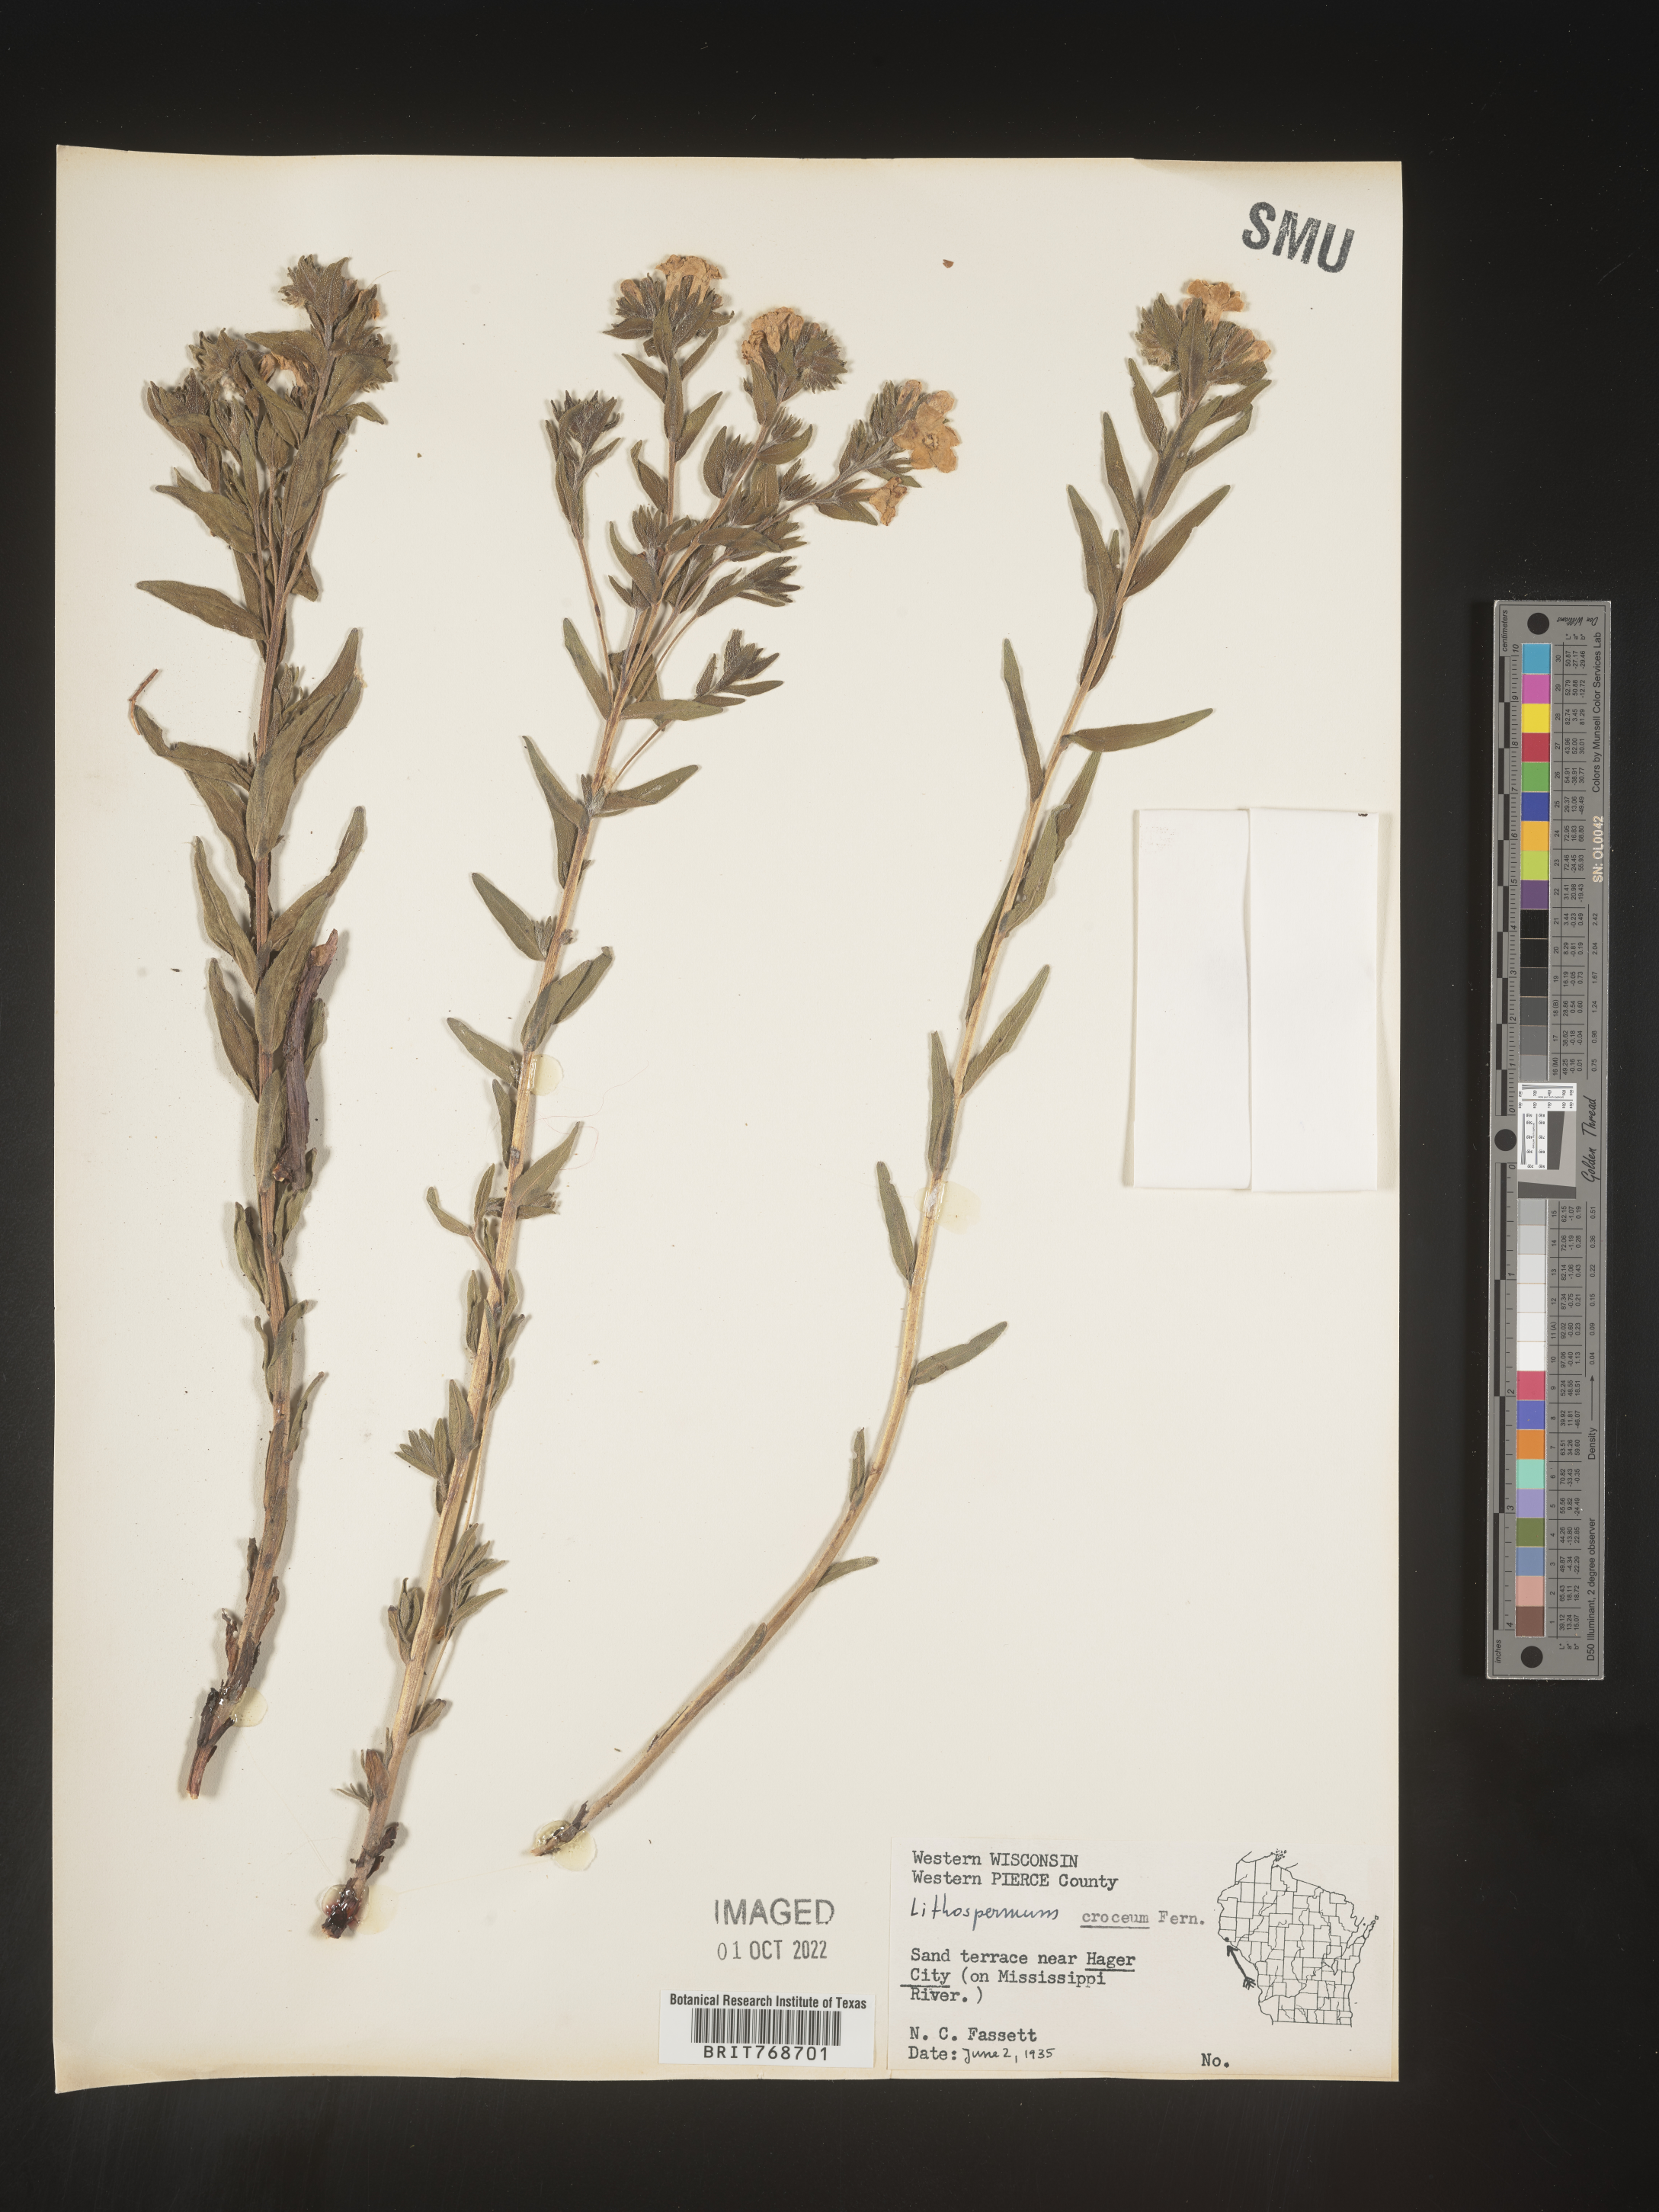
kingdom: Plantae
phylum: Tracheophyta
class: Magnoliopsida
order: Boraginales
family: Boraginaceae
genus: Lithospermum
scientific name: Lithospermum caroliniense
